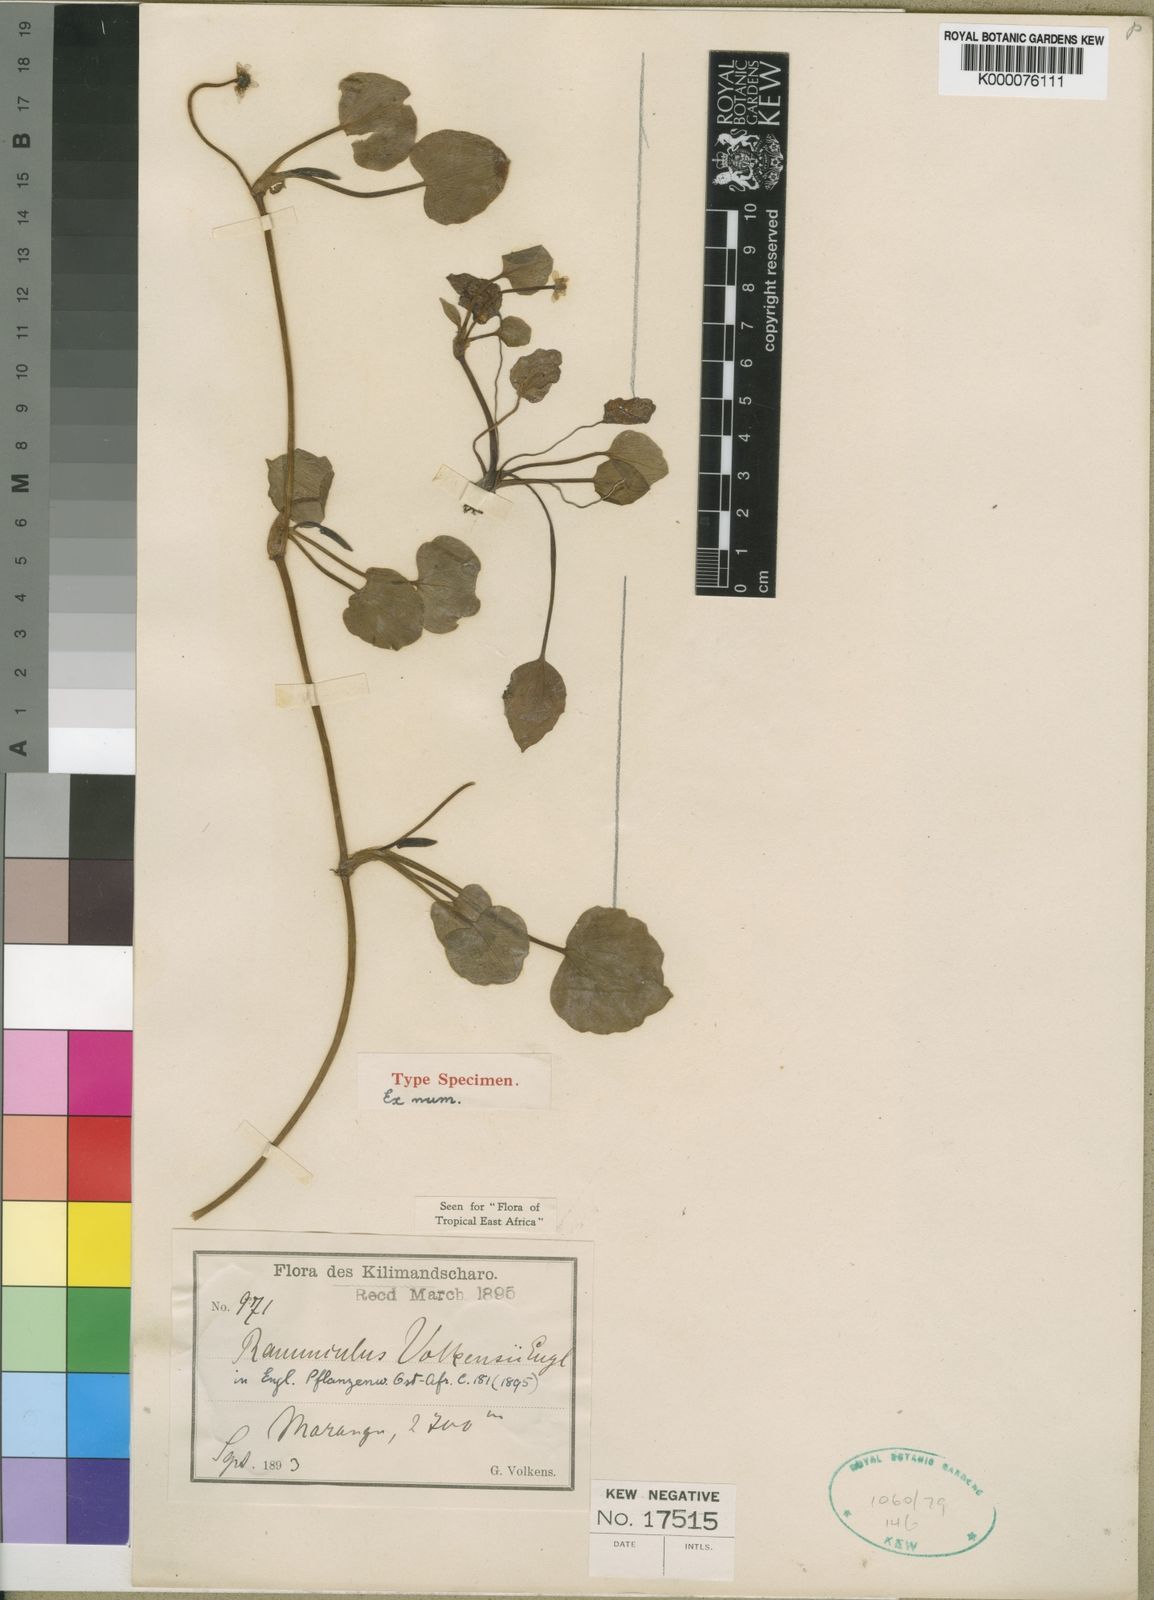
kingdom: Plantae
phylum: Tracheophyta
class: Magnoliopsida
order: Ranunculales
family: Ranunculaceae
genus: Ranunculus
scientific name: Ranunculus volkensii
